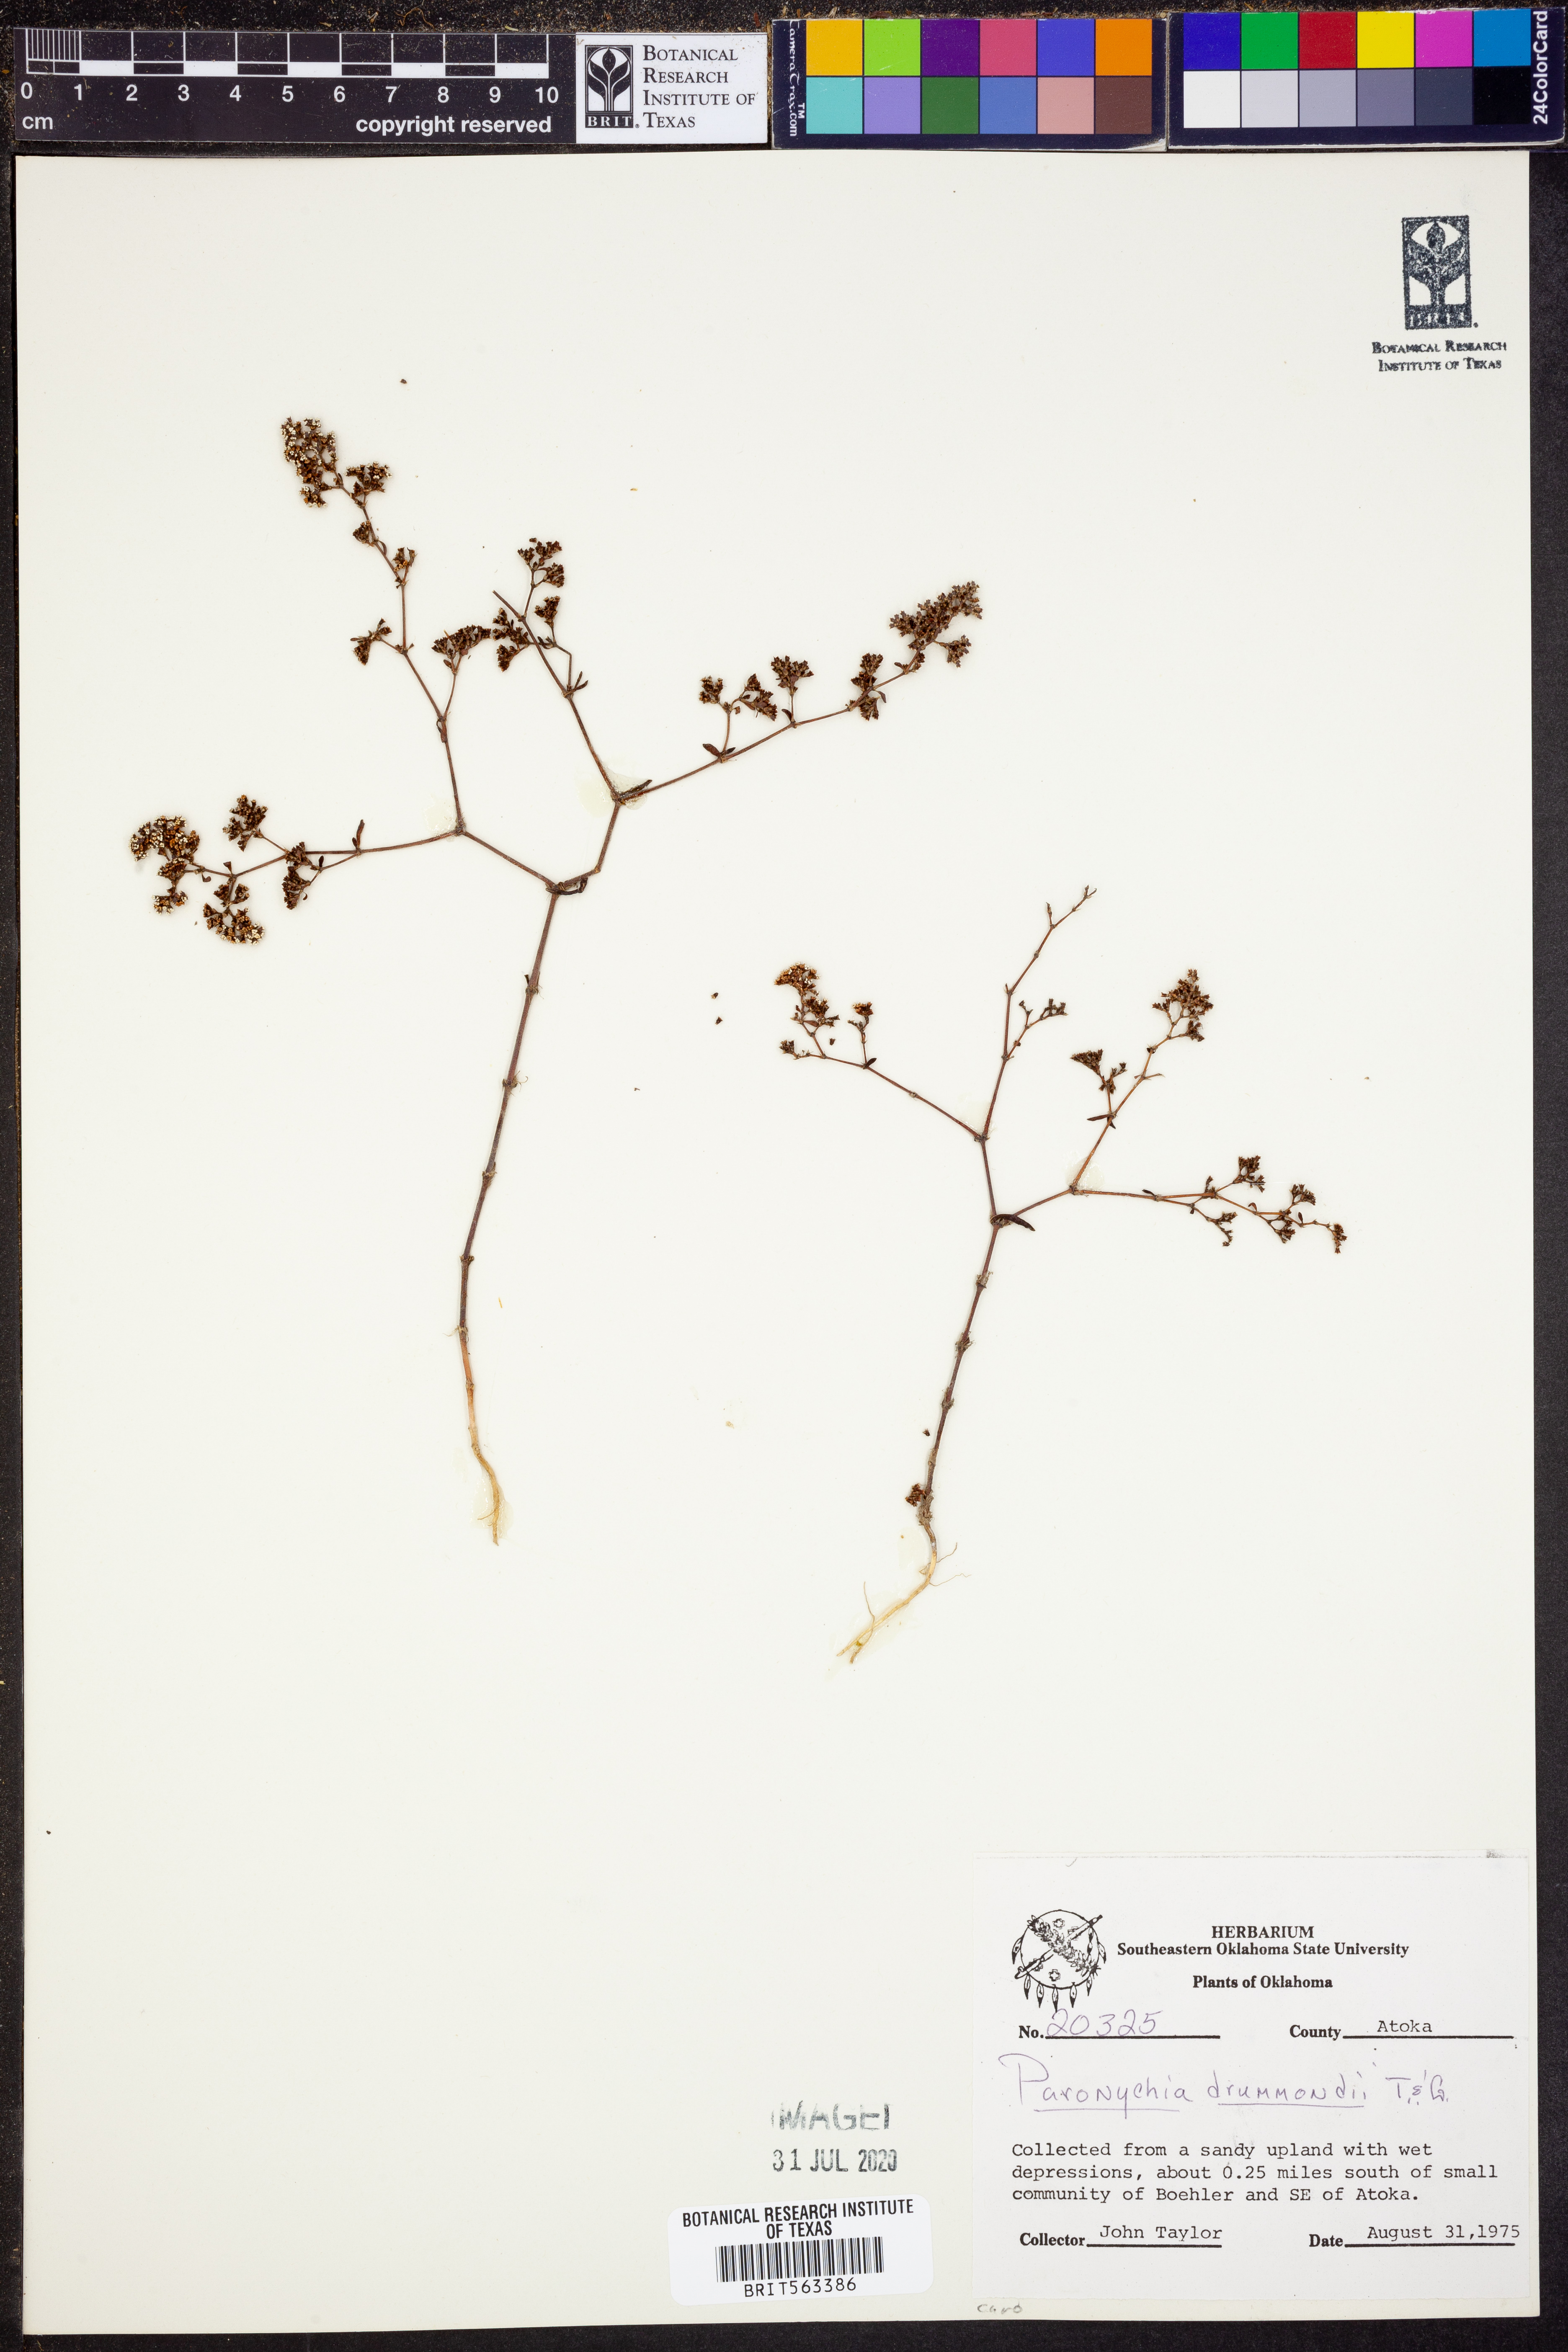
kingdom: Plantae
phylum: Tracheophyta
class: Magnoliopsida
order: Caryophyllales
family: Caryophyllaceae
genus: Paronychia
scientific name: Paronychia drummondii
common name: Drummond's nailwort
